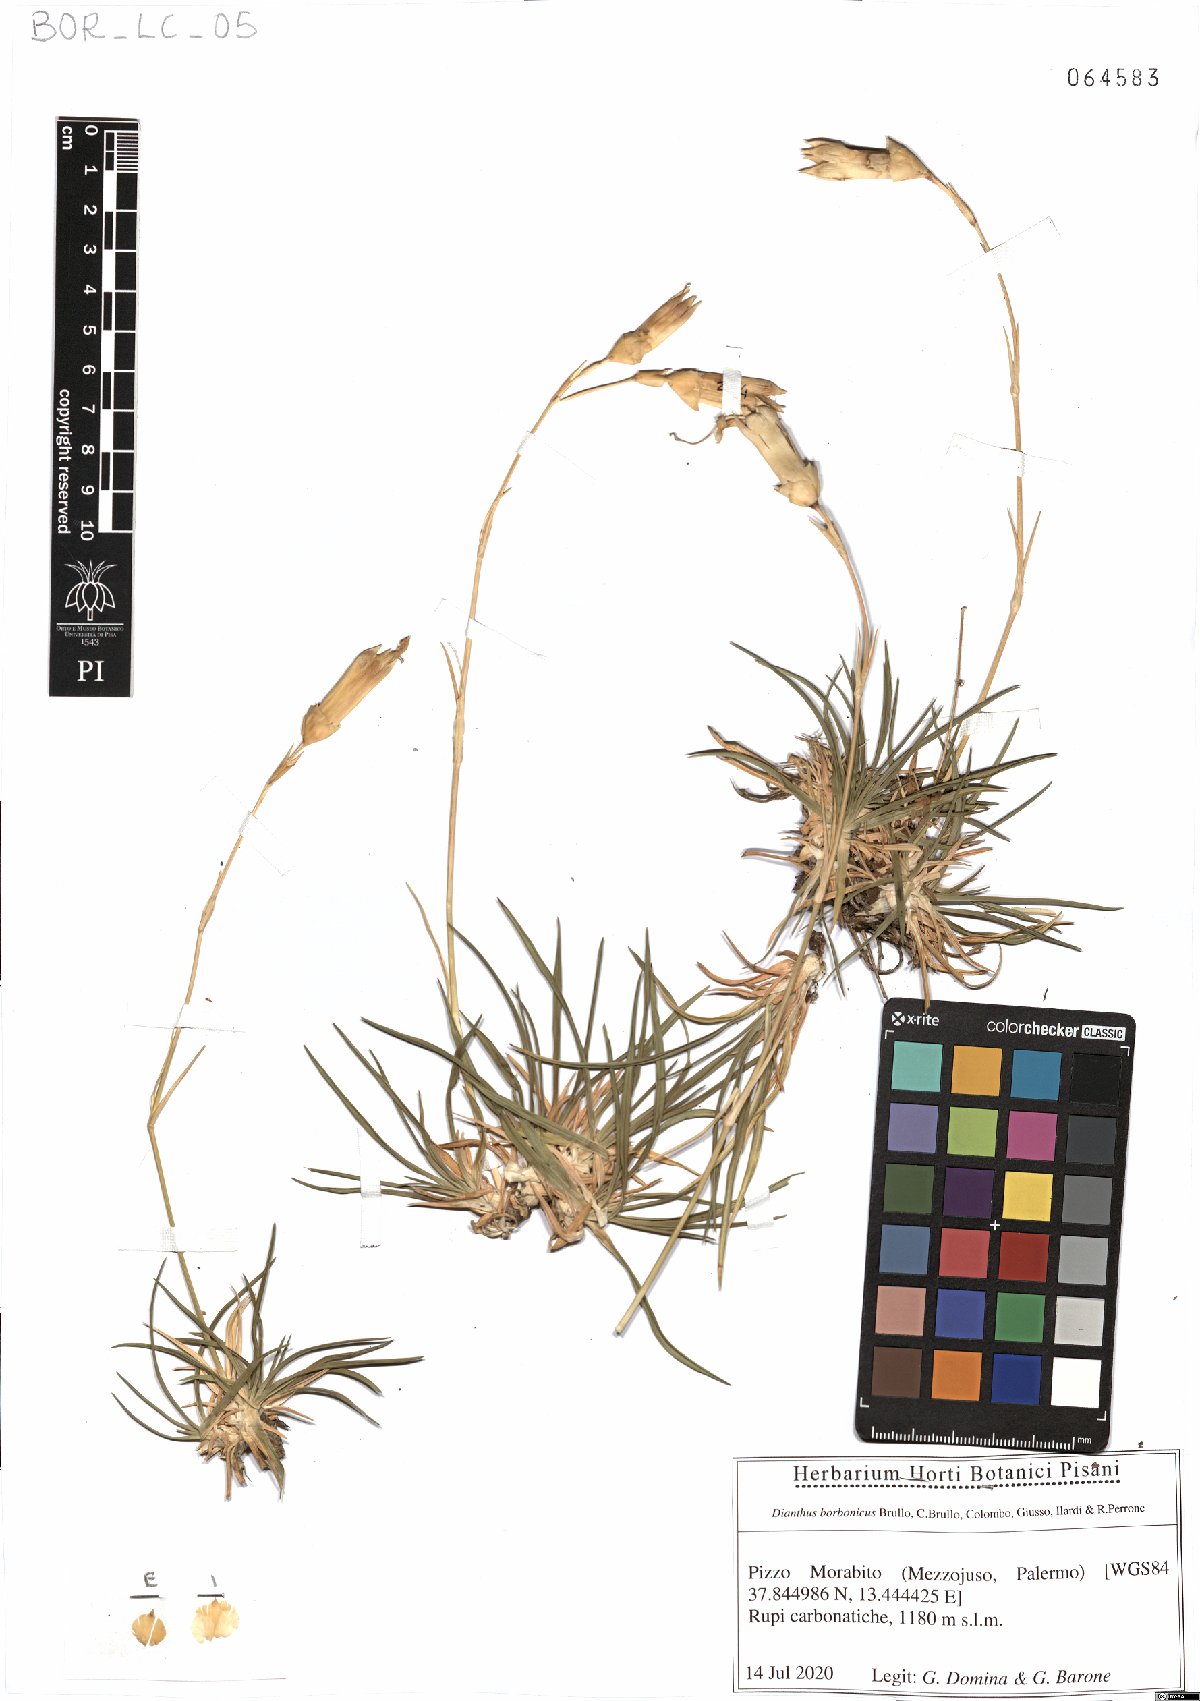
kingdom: Plantae
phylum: Tracheophyta
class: Magnoliopsida
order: Caryophyllales
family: Caryophyllaceae
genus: Dianthus
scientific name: Dianthus borbonicus
